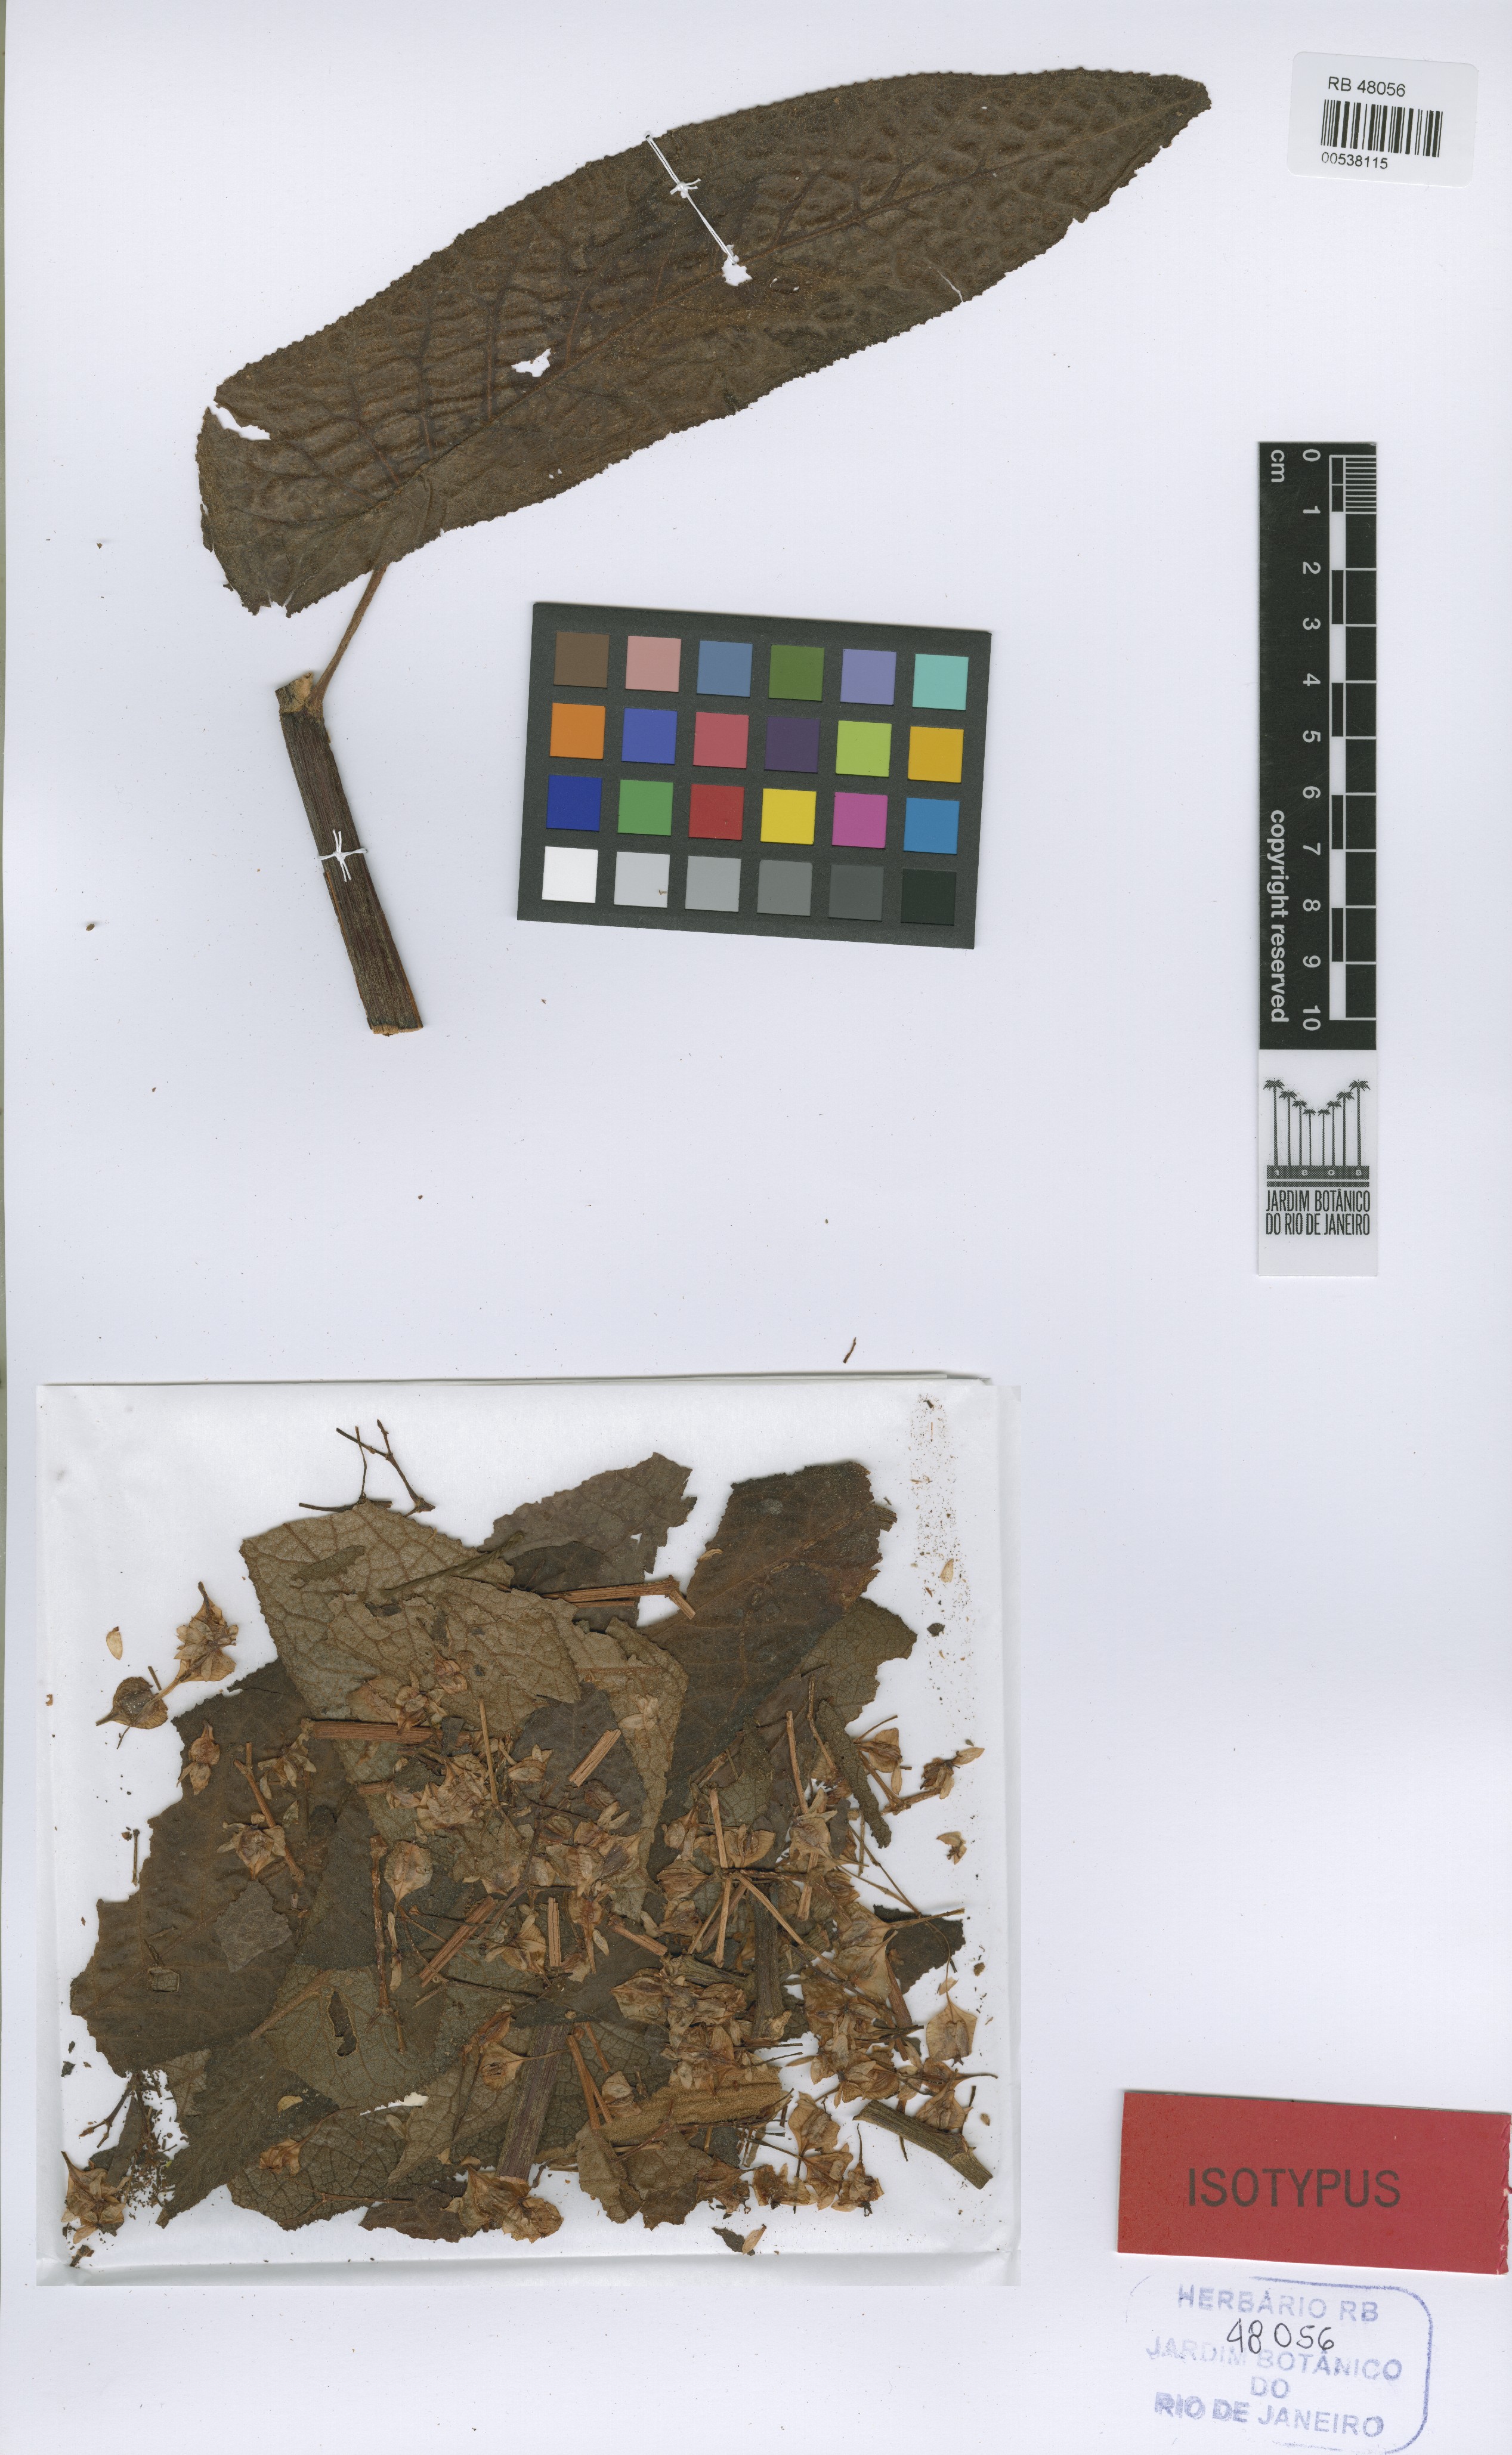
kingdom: Plantae
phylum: Tracheophyta
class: Magnoliopsida
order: Cucurbitales
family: Begoniaceae
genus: Begonia
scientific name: Begonia egregia
